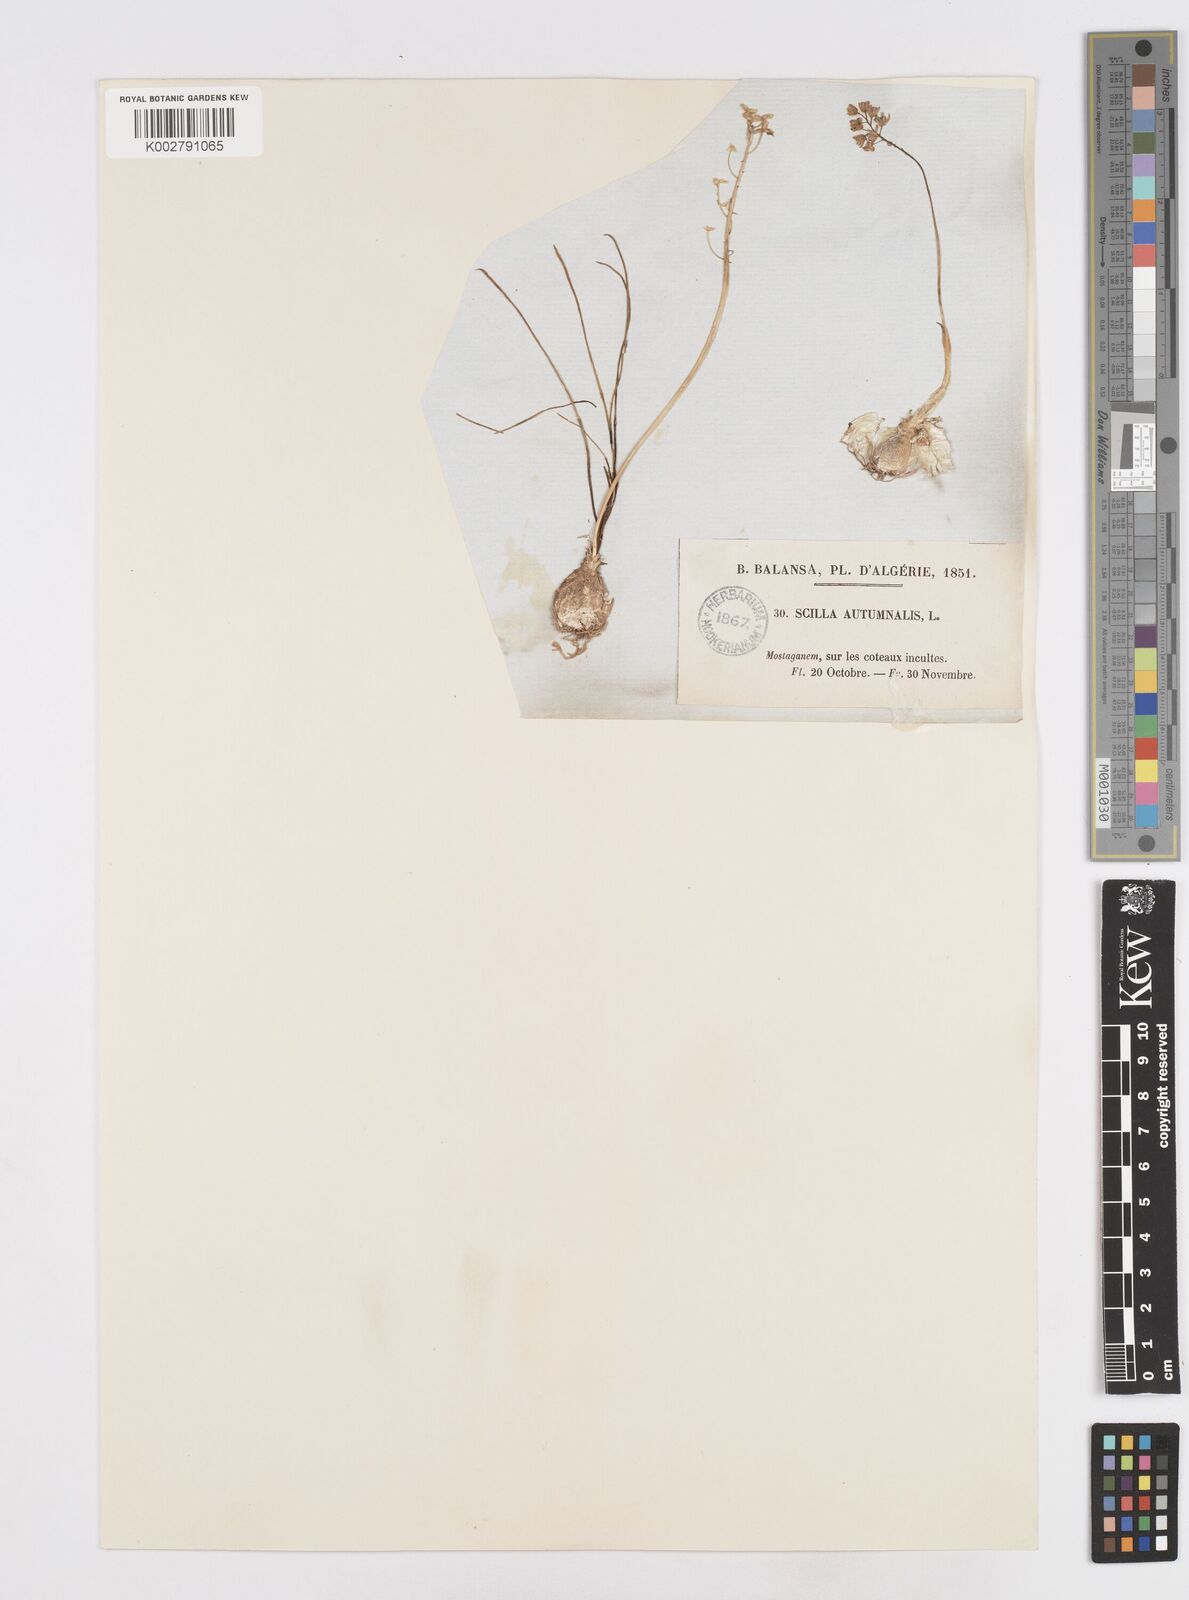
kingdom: Plantae
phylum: Tracheophyta
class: Liliopsida
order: Asparagales
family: Asparagaceae
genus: Prospero
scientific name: Prospero autumnale
